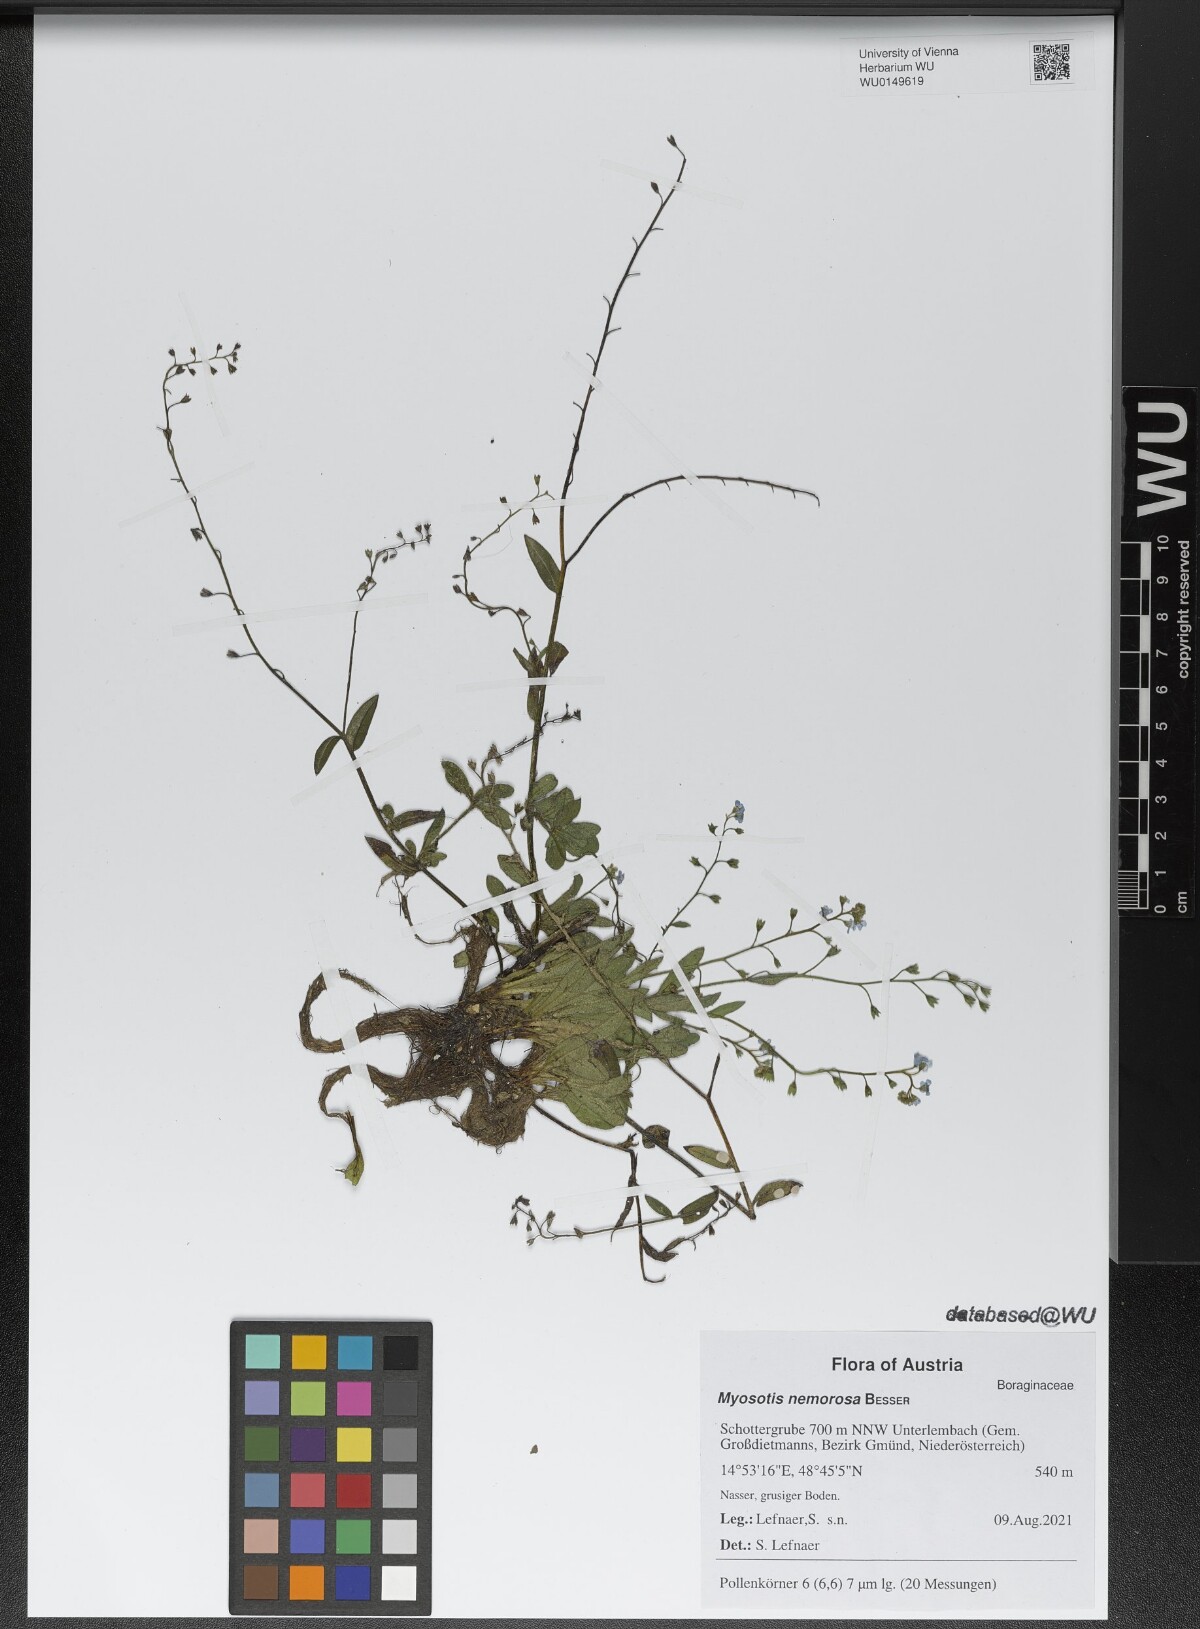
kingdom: Plantae
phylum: Tracheophyta
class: Magnoliopsida
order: Boraginales
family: Boraginaceae
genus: Myosotis
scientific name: Myosotis nemorosa
